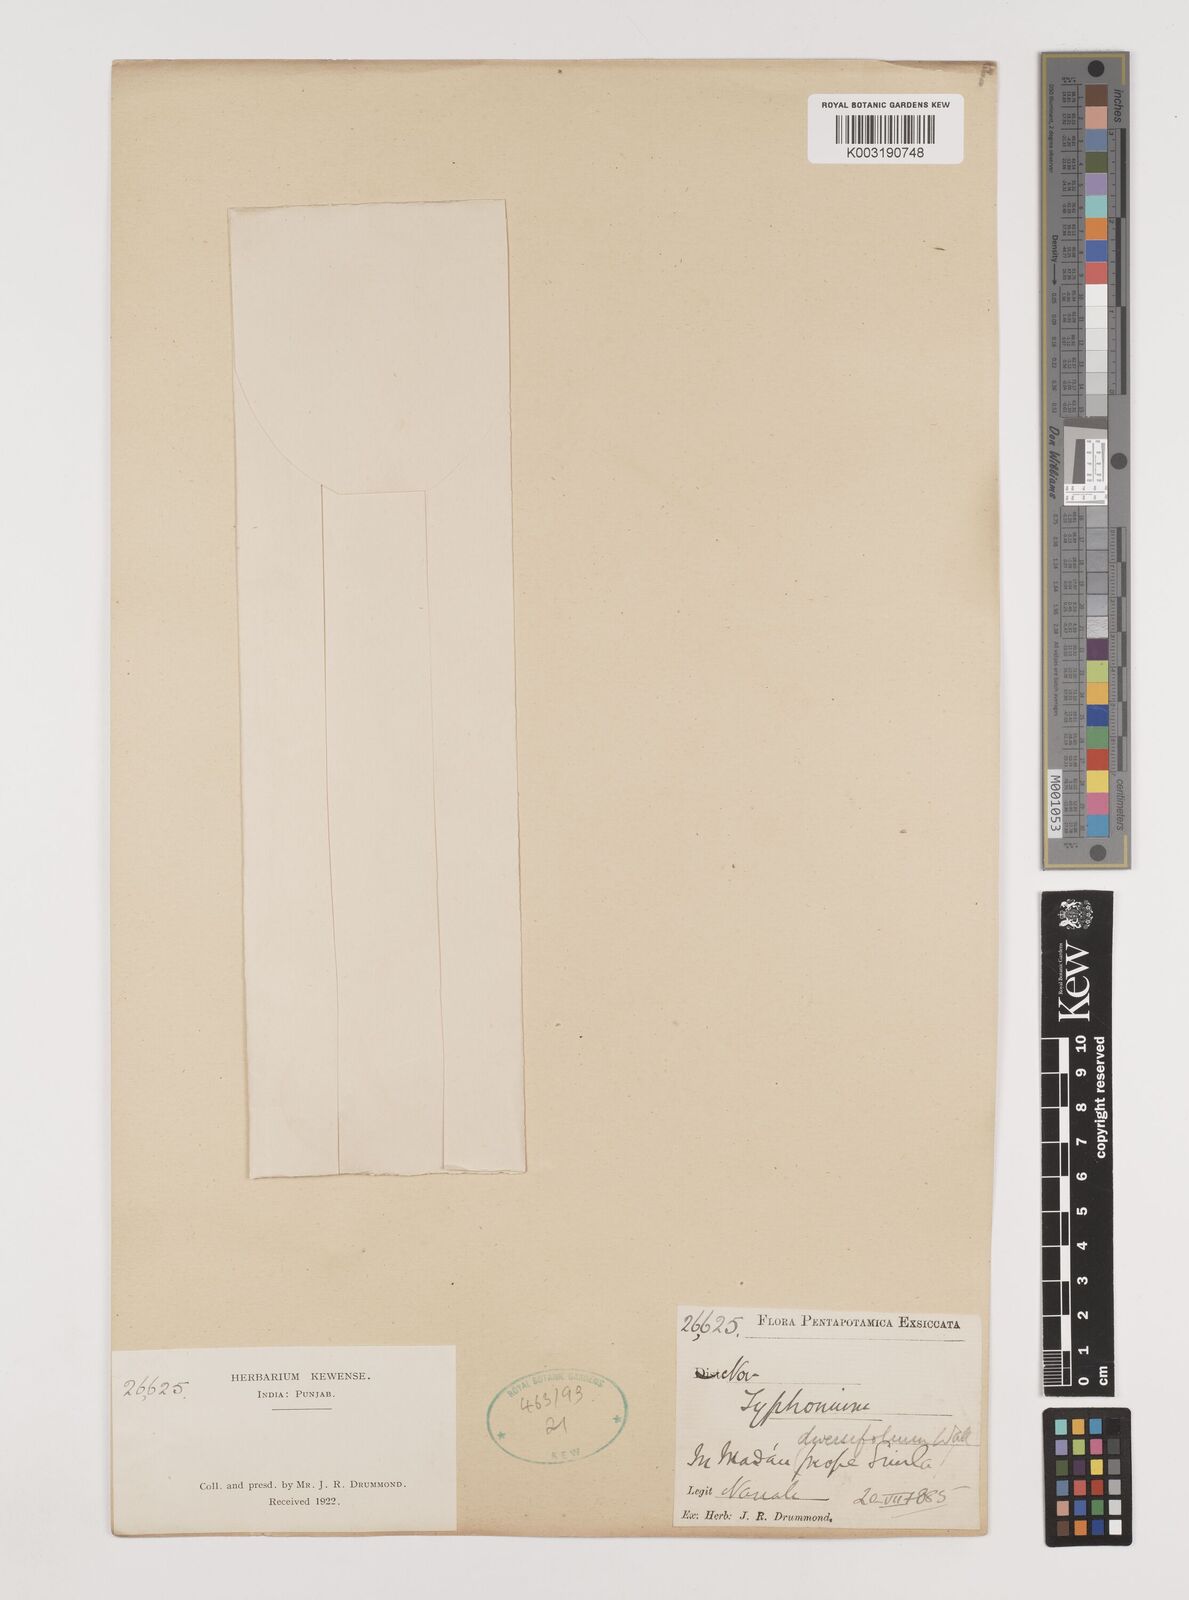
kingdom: Plantae
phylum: Tracheophyta
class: Liliopsida
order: Alismatales
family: Araceae
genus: Sauromatum
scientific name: Sauromatum diversifolium
